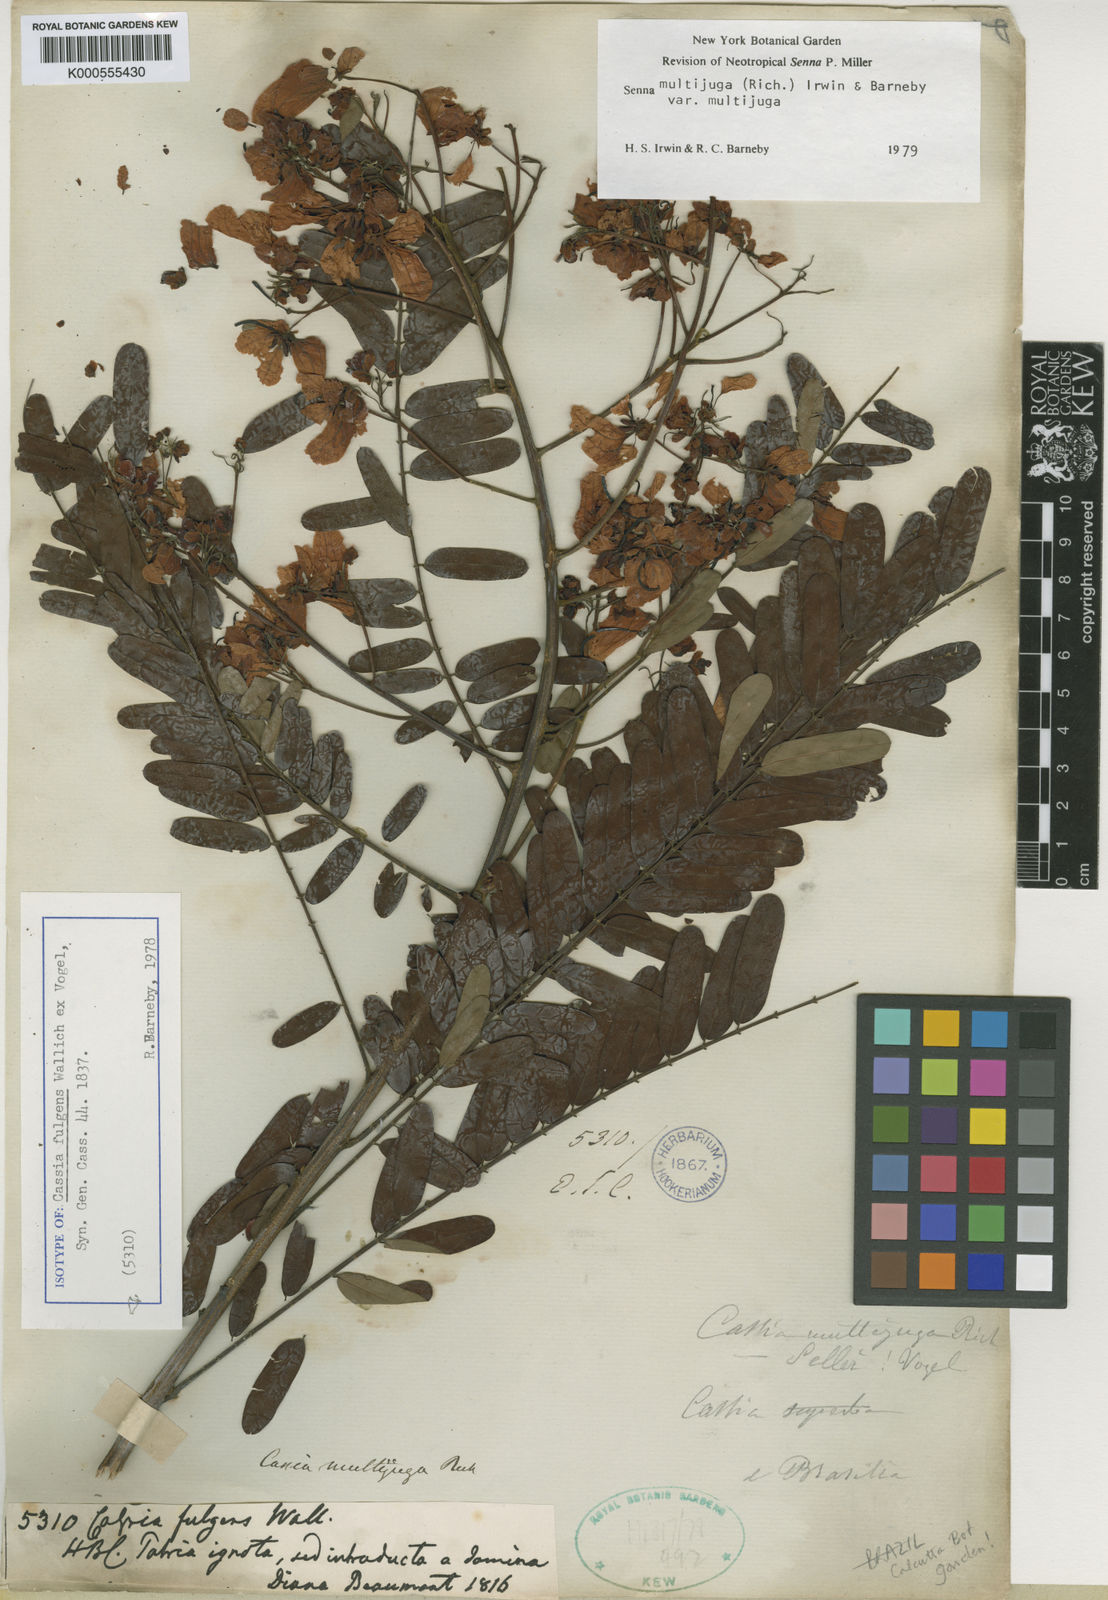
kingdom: Plantae
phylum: Tracheophyta
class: Magnoliopsida
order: Fabales
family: Fabaceae
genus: Senna
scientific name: Senna multijuga
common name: False sicklepod
